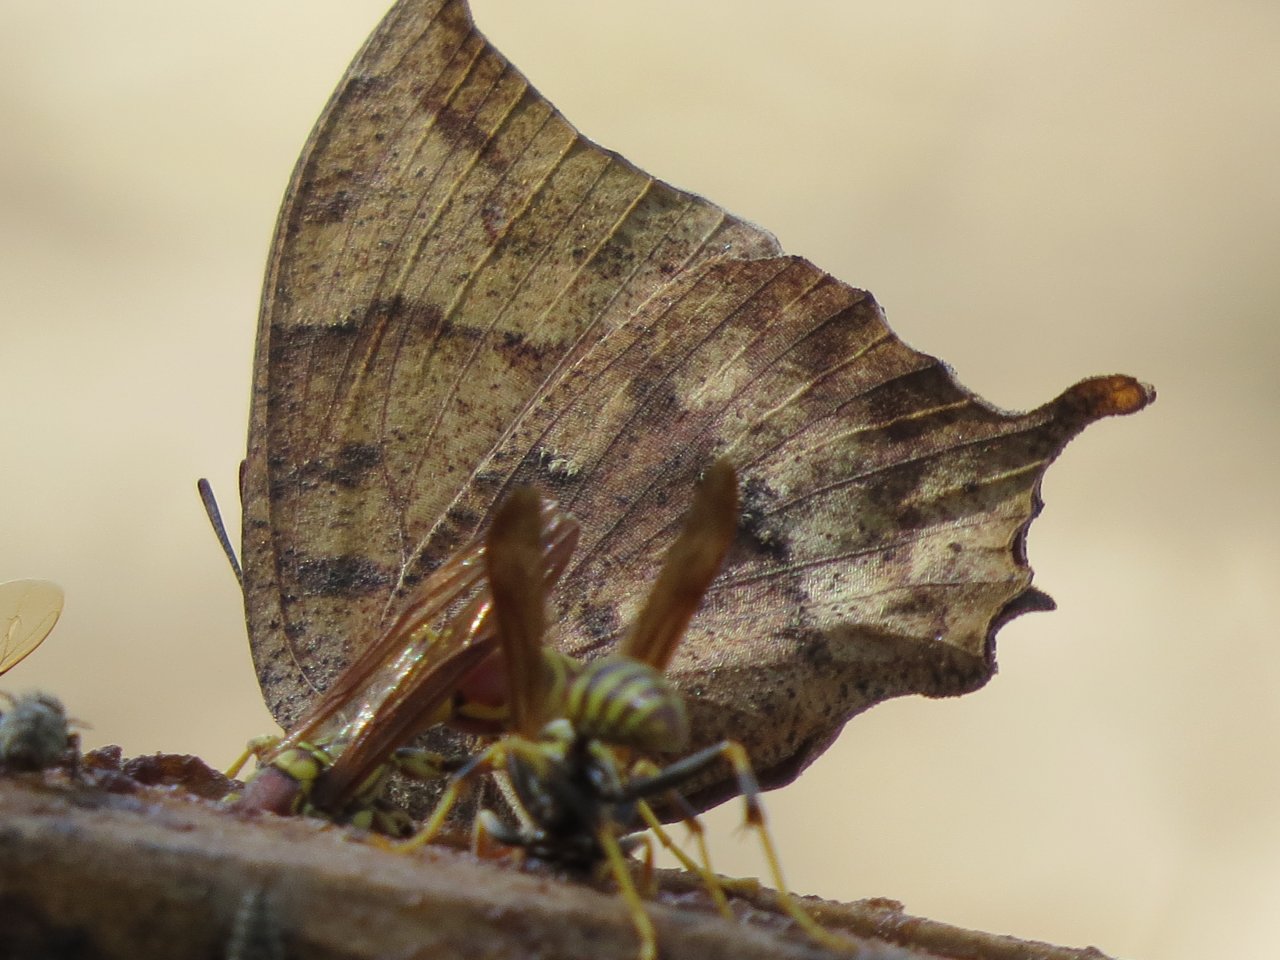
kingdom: Animalia
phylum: Arthropoda
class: Insecta
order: Lepidoptera
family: Nymphalidae
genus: Anaea
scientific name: Anaea andria
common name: Goatweed Leafwing
